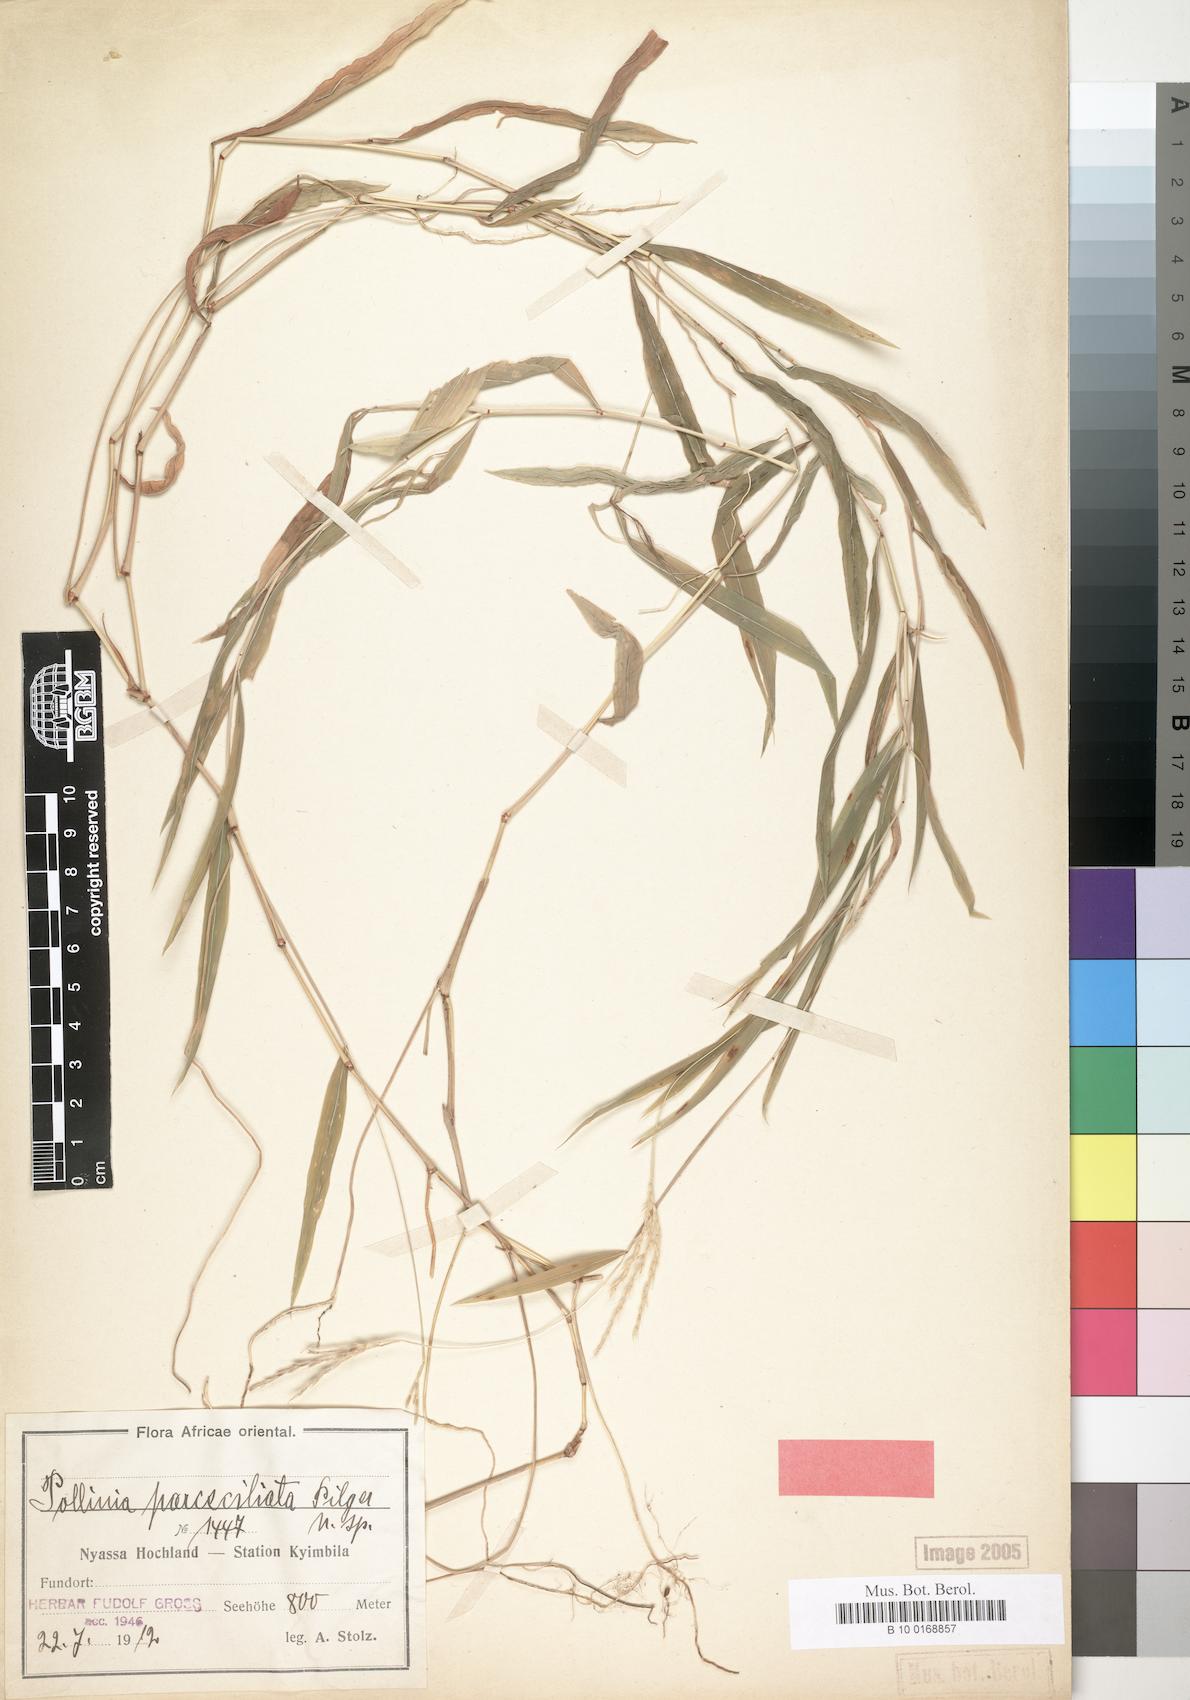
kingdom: Plantae
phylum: Tracheophyta
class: Liliopsida
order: Poales
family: Poaceae
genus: Microstegium
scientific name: Microstegium fasciculatum
